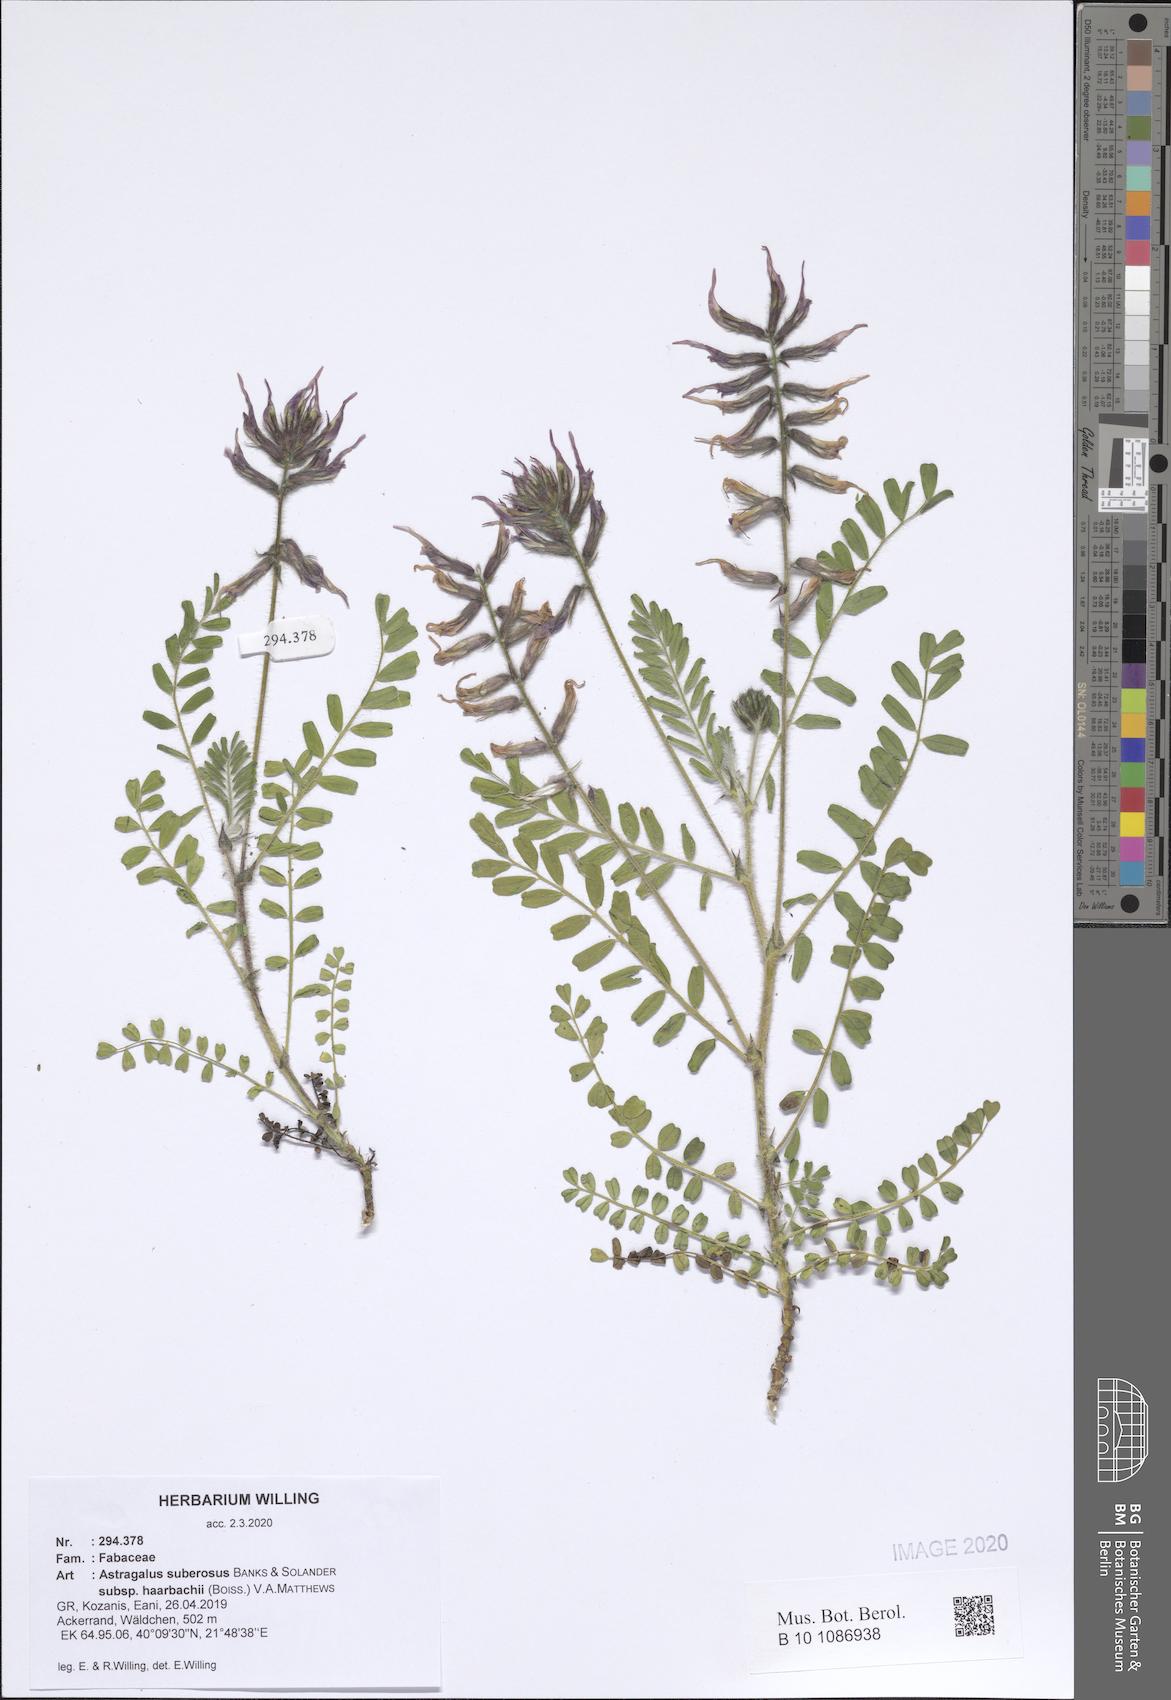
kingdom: Plantae
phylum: Tracheophyta
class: Magnoliopsida
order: Fabales
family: Fabaceae
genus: Astragalus
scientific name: Astragalus suberosus
